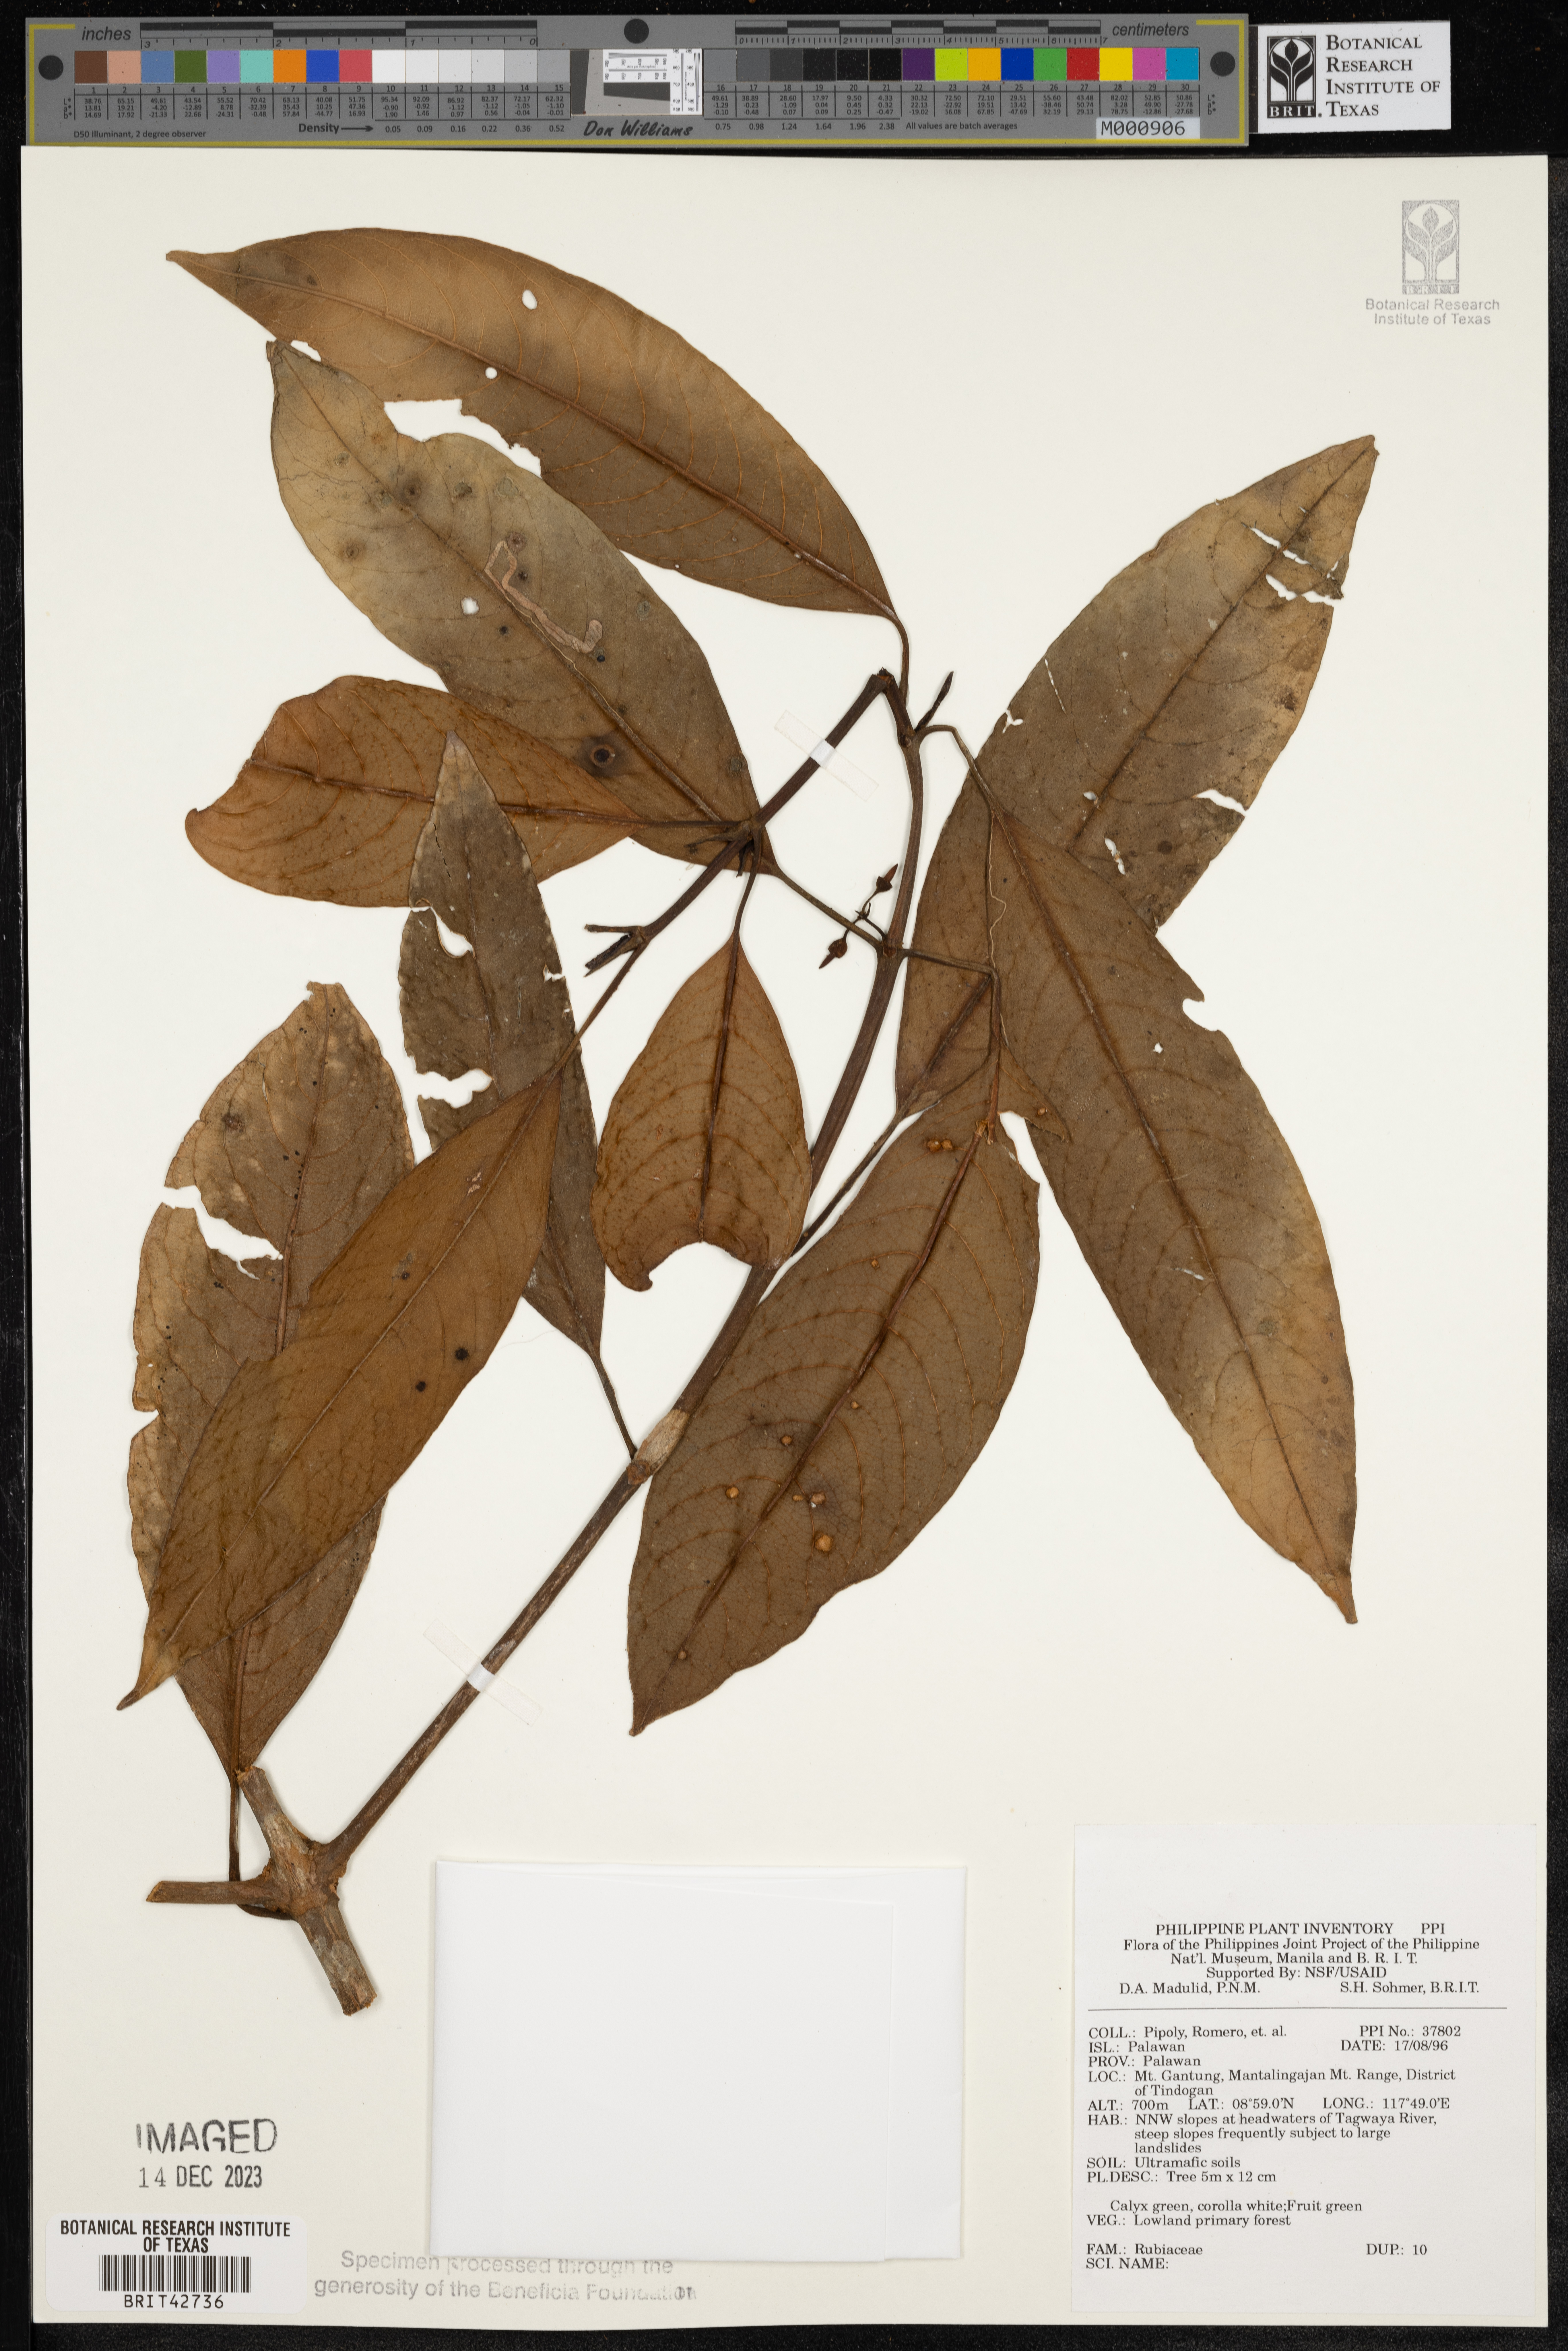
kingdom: Plantae
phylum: Tracheophyta
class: Magnoliopsida
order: Gentianales
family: Rubiaceae
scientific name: Rubiaceae
